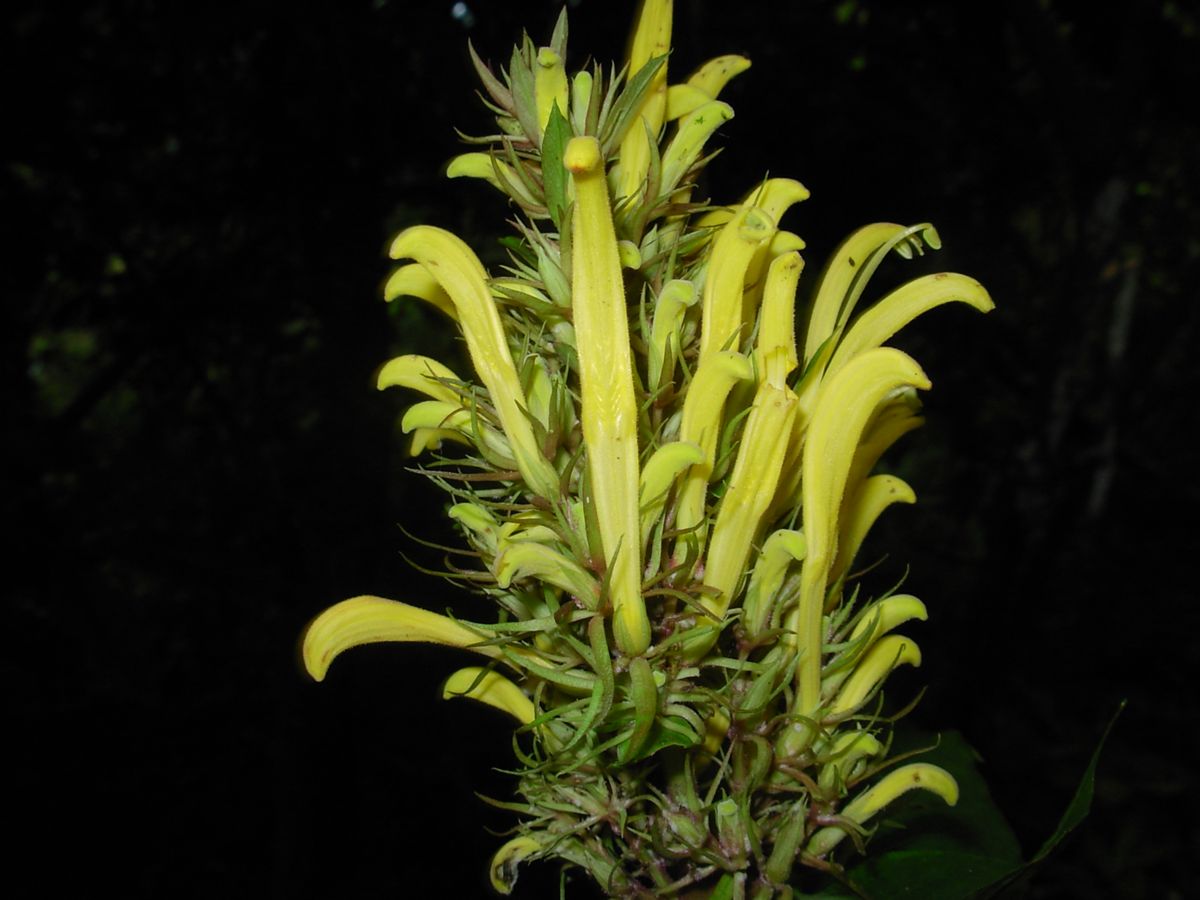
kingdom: Plantae
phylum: Tracheophyta
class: Magnoliopsida
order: Lamiales
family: Acanthaceae
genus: Justicia
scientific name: Justicia aurea
